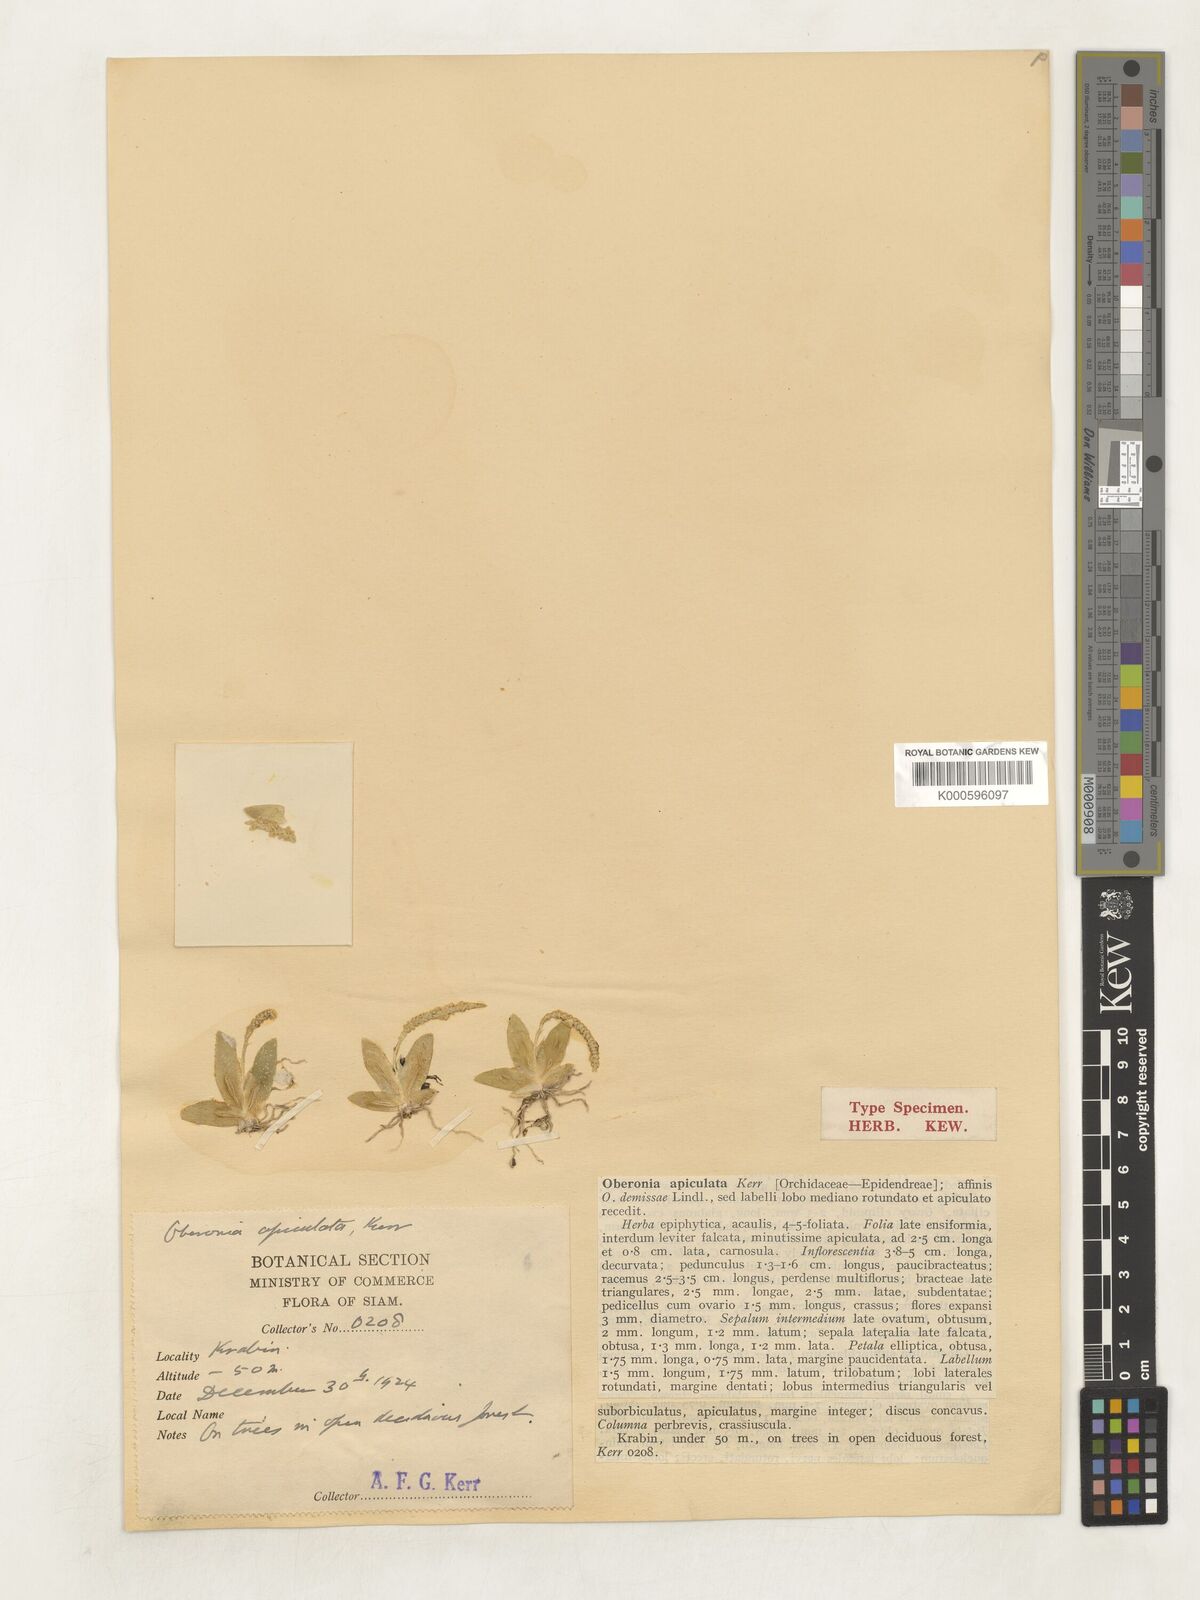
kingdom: Plantae
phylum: Tracheophyta
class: Liliopsida
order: Asparagales
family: Orchidaceae
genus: Oberonia
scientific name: Oberonia pachyphylla
